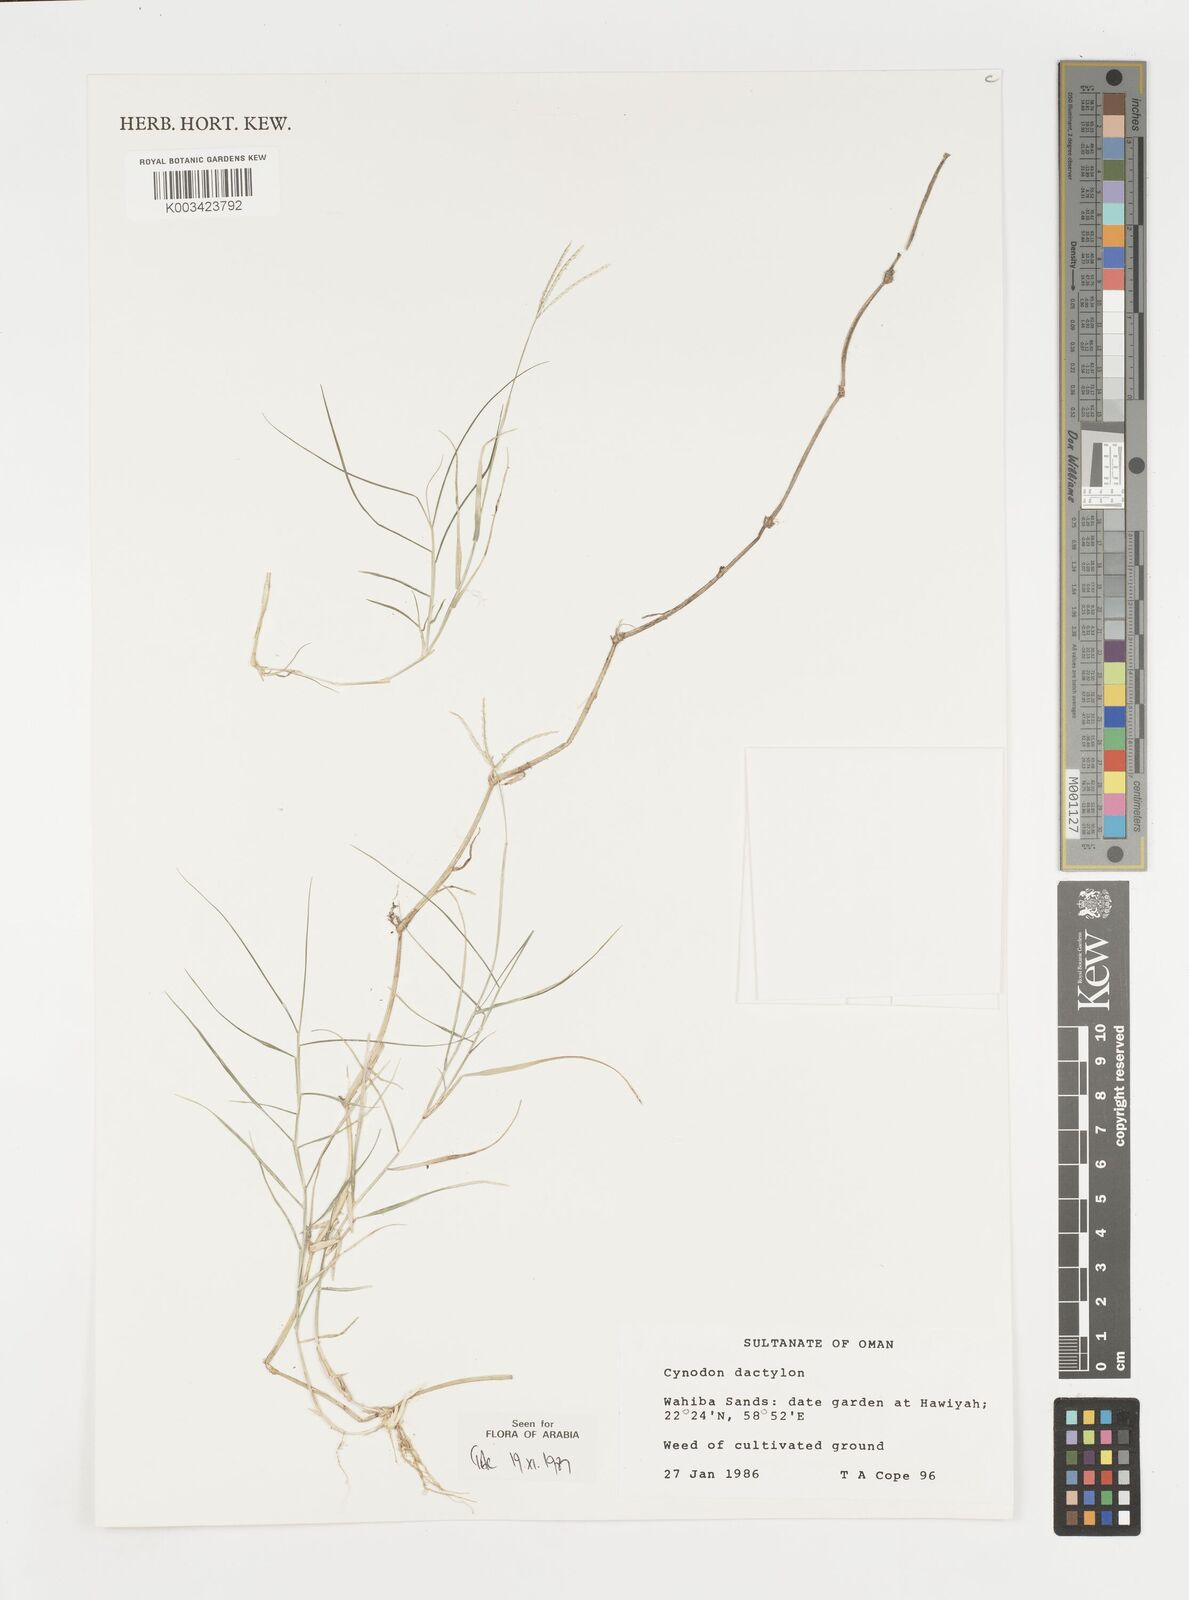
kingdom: Plantae
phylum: Tracheophyta
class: Liliopsida
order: Poales
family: Poaceae
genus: Cynodon
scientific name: Cynodon dactylon
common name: Bermuda grass
